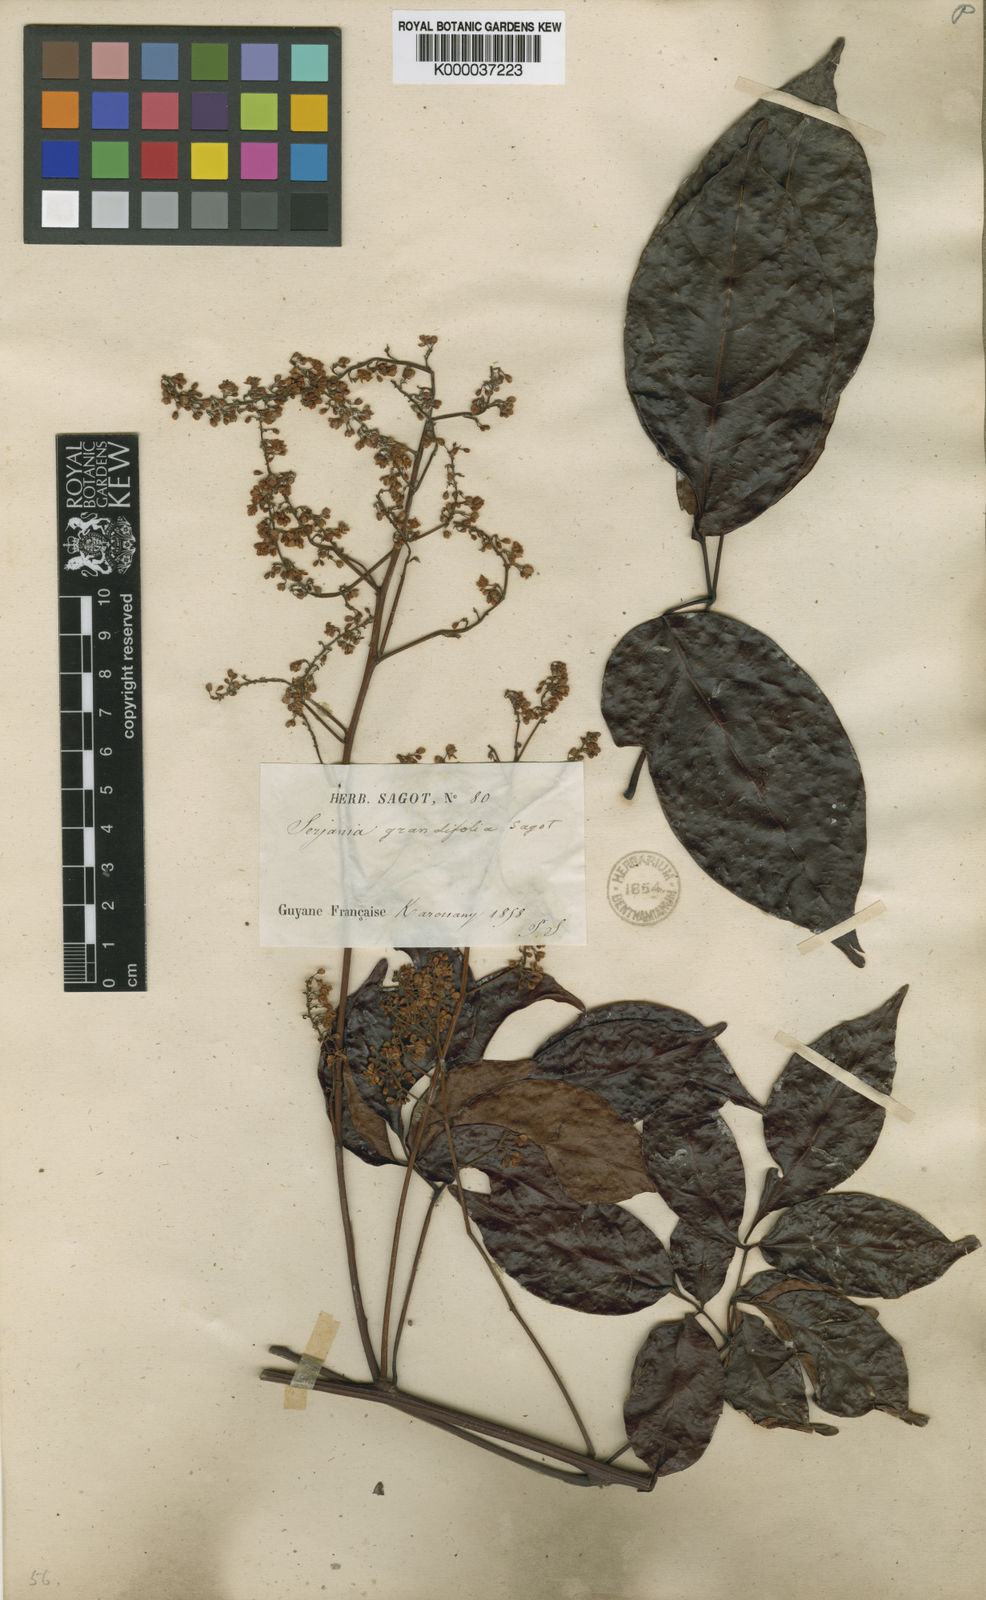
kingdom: Plantae
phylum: Tracheophyta
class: Magnoliopsida
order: Sapindales
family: Sapindaceae
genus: Serjania
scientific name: Serjania grandifolia
